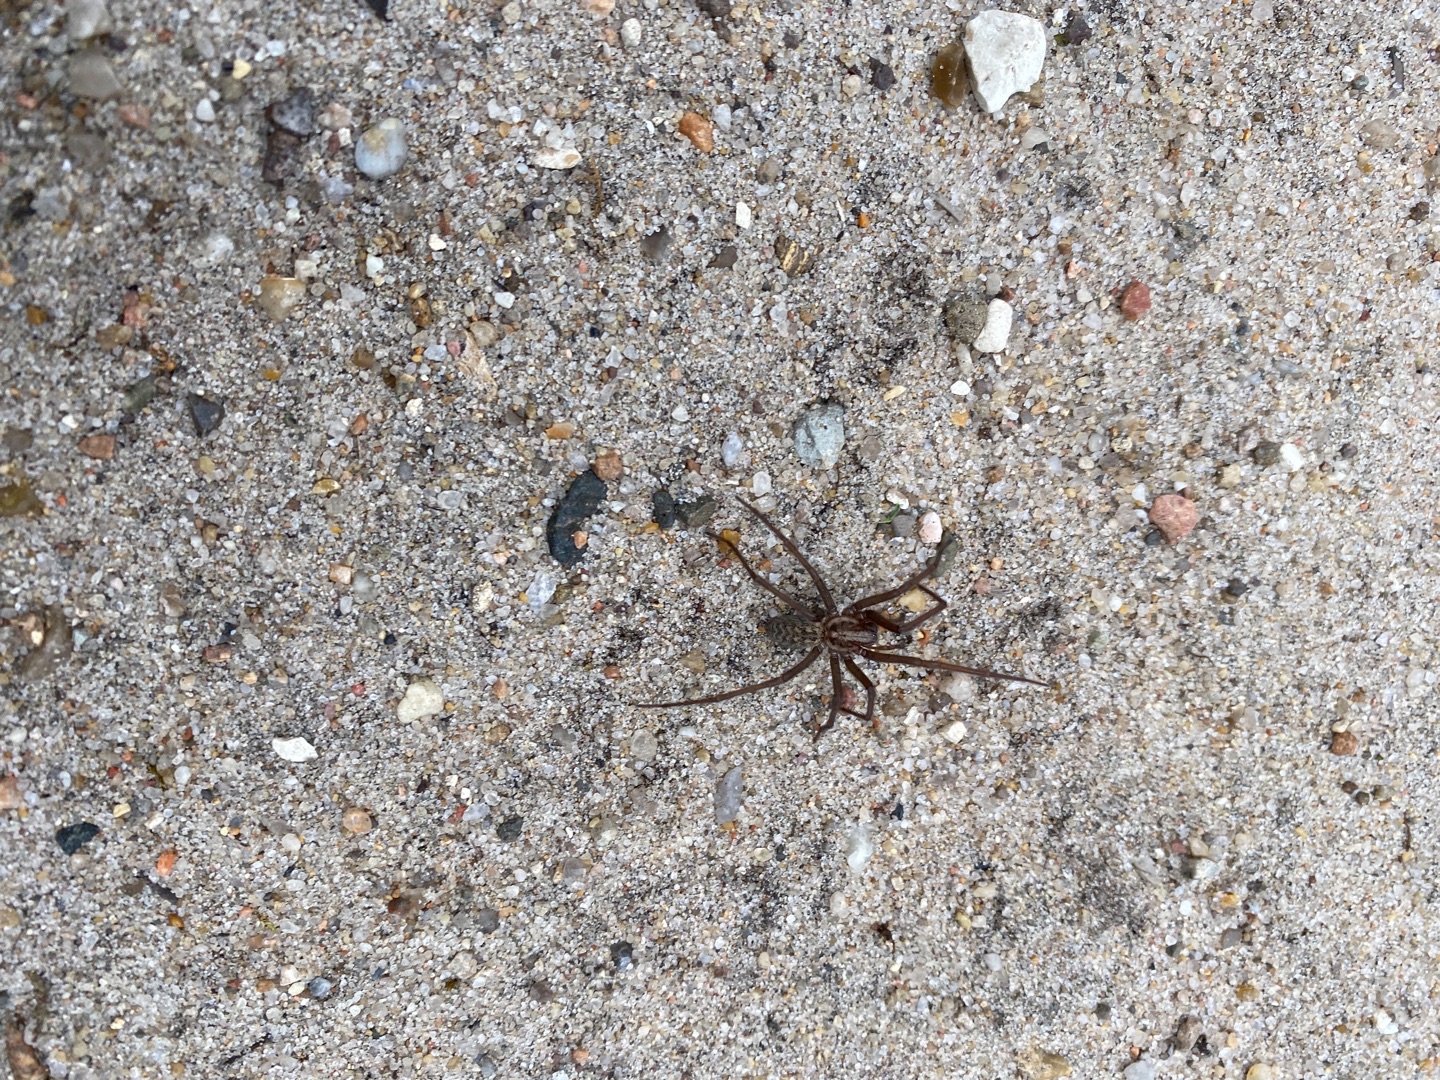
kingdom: Animalia
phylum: Arthropoda
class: Arachnida
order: Araneae
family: Agelenidae
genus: Eratigena
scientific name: Eratigena atrica
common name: Stor husedderkop
